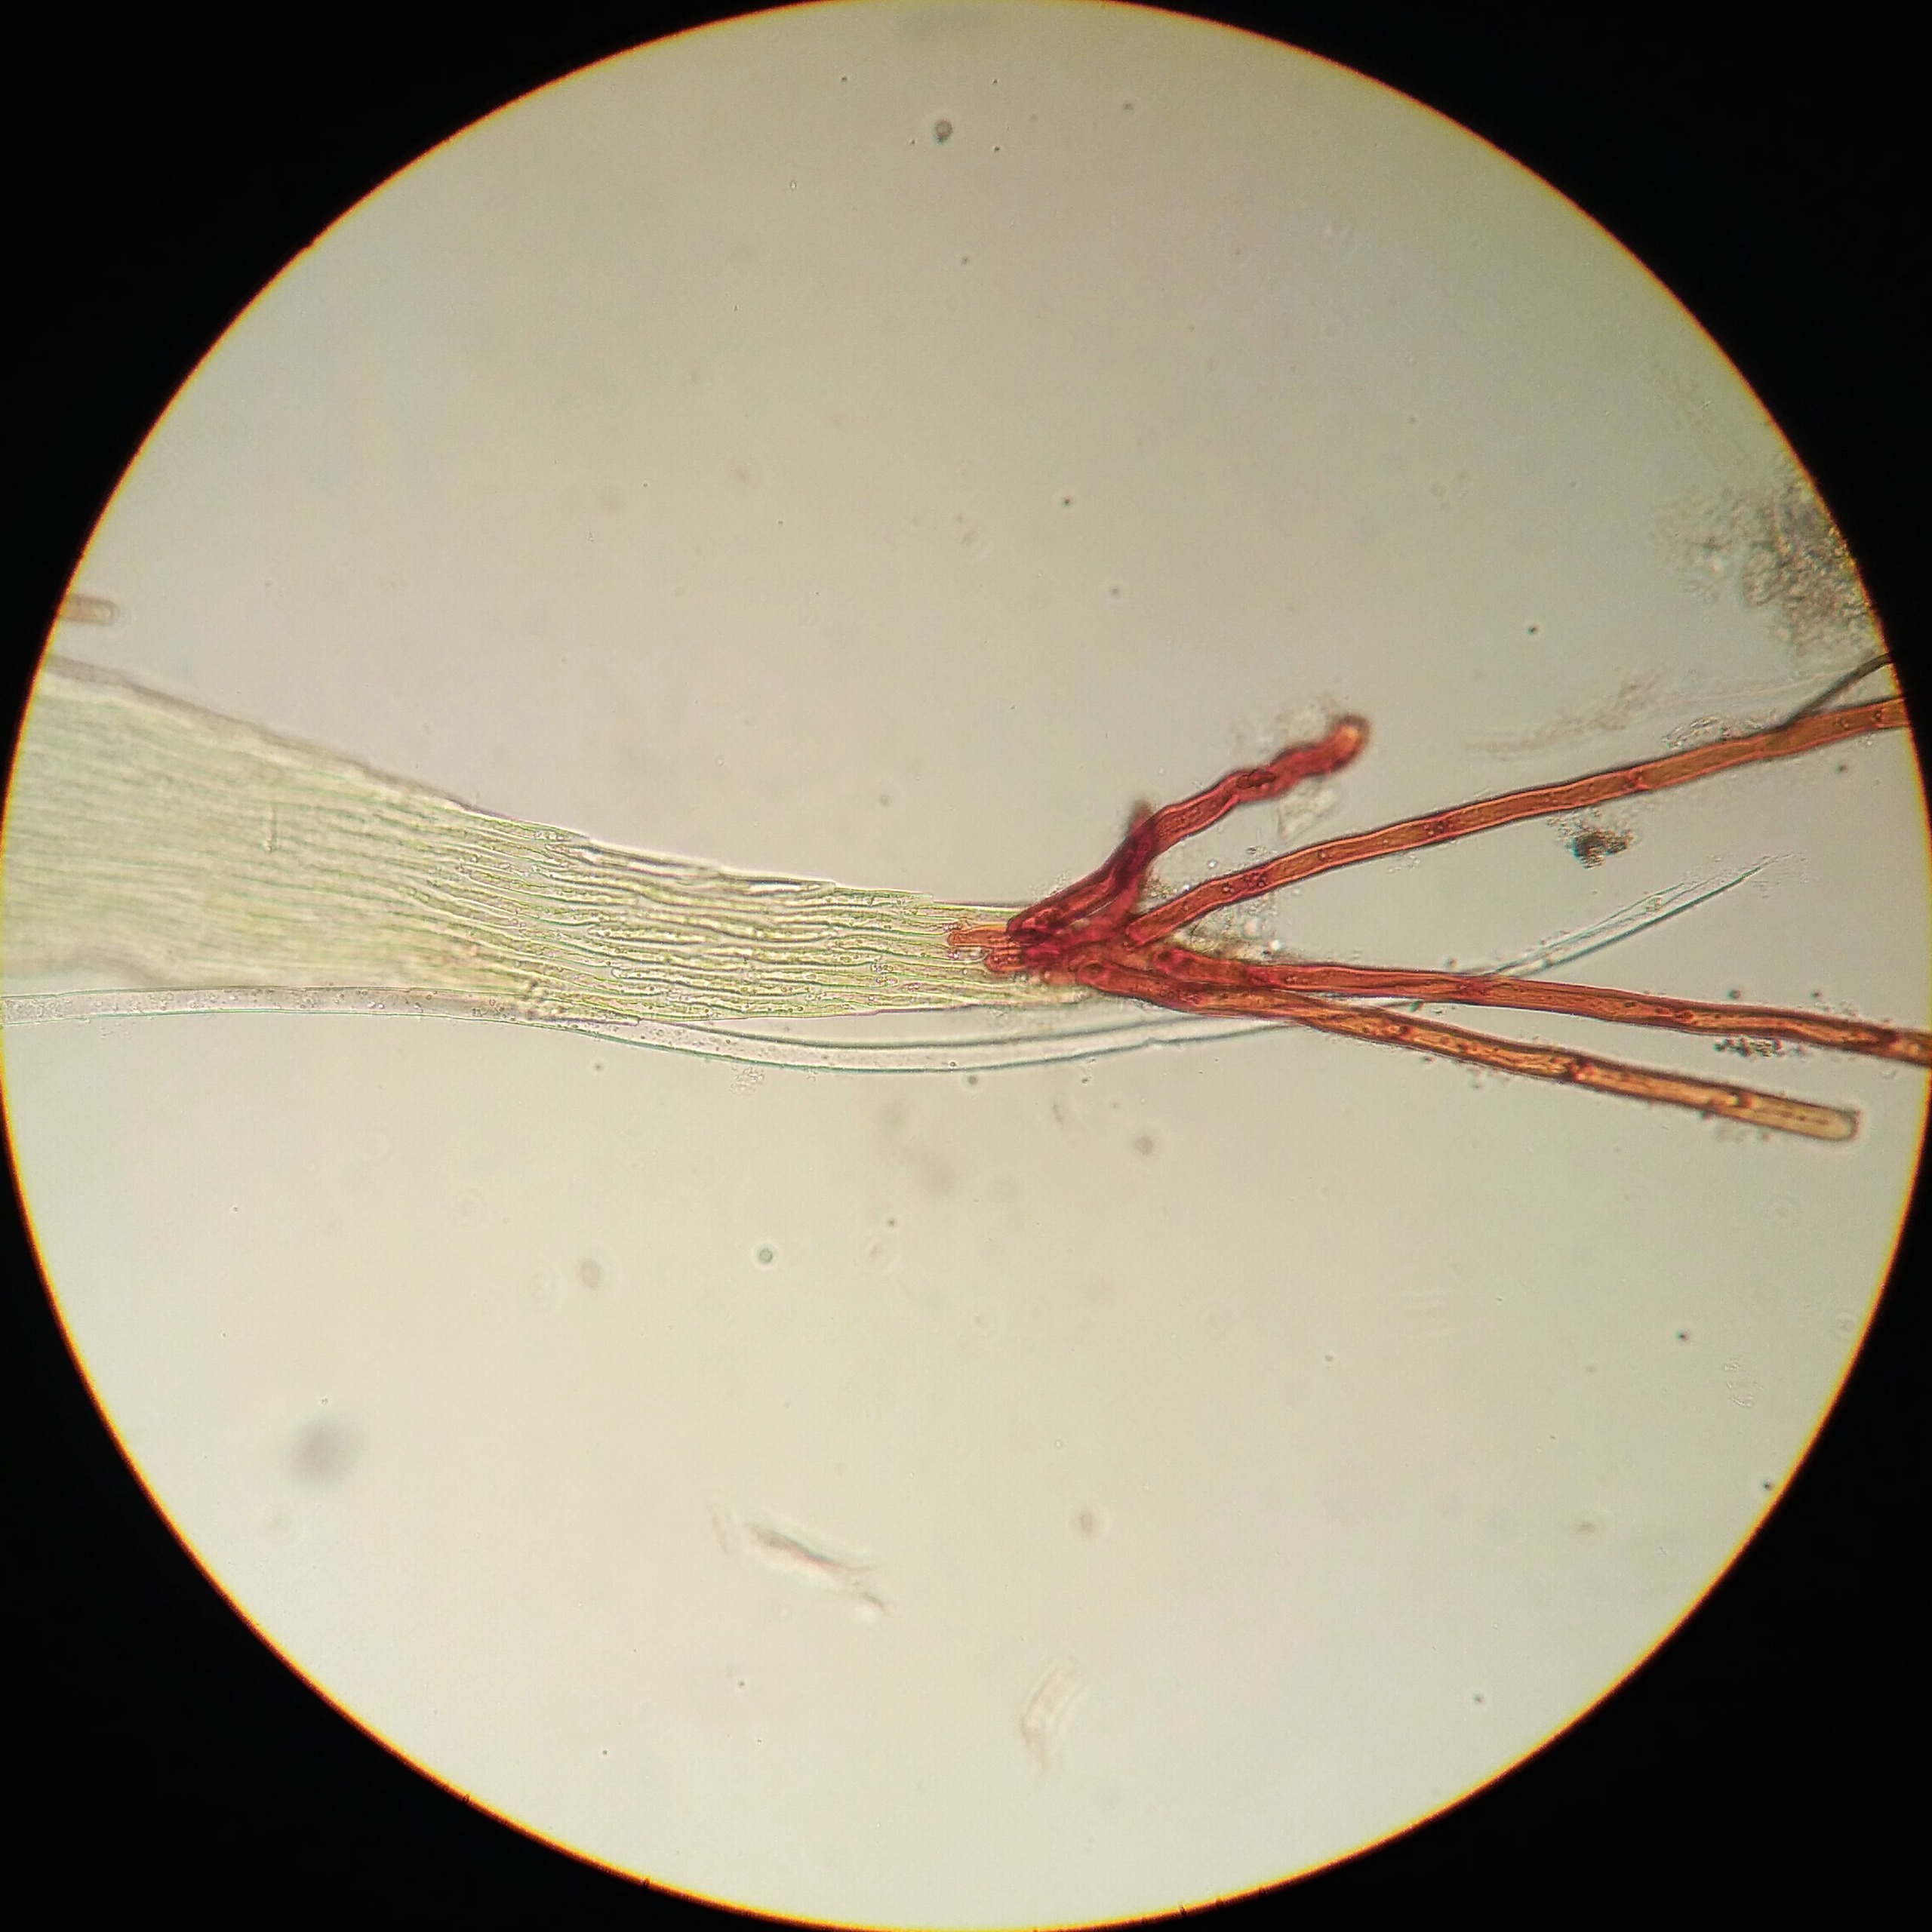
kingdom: Plantae
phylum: Bryophyta
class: Bryopsida
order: Hypnales
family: Calliergonaceae
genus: Warnstorfia
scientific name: Warnstorfia fluitans
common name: Vand-bueblad
